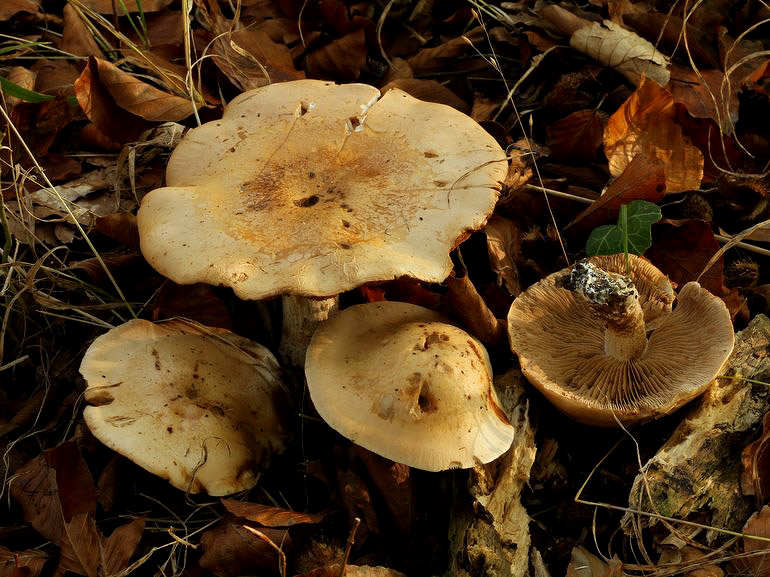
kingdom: Fungi
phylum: Basidiomycota
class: Agaricomycetes
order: Agaricales
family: Hymenogastraceae
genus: Hebeloma
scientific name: Hebeloma sinapizans
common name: ræddike-tåreblad
